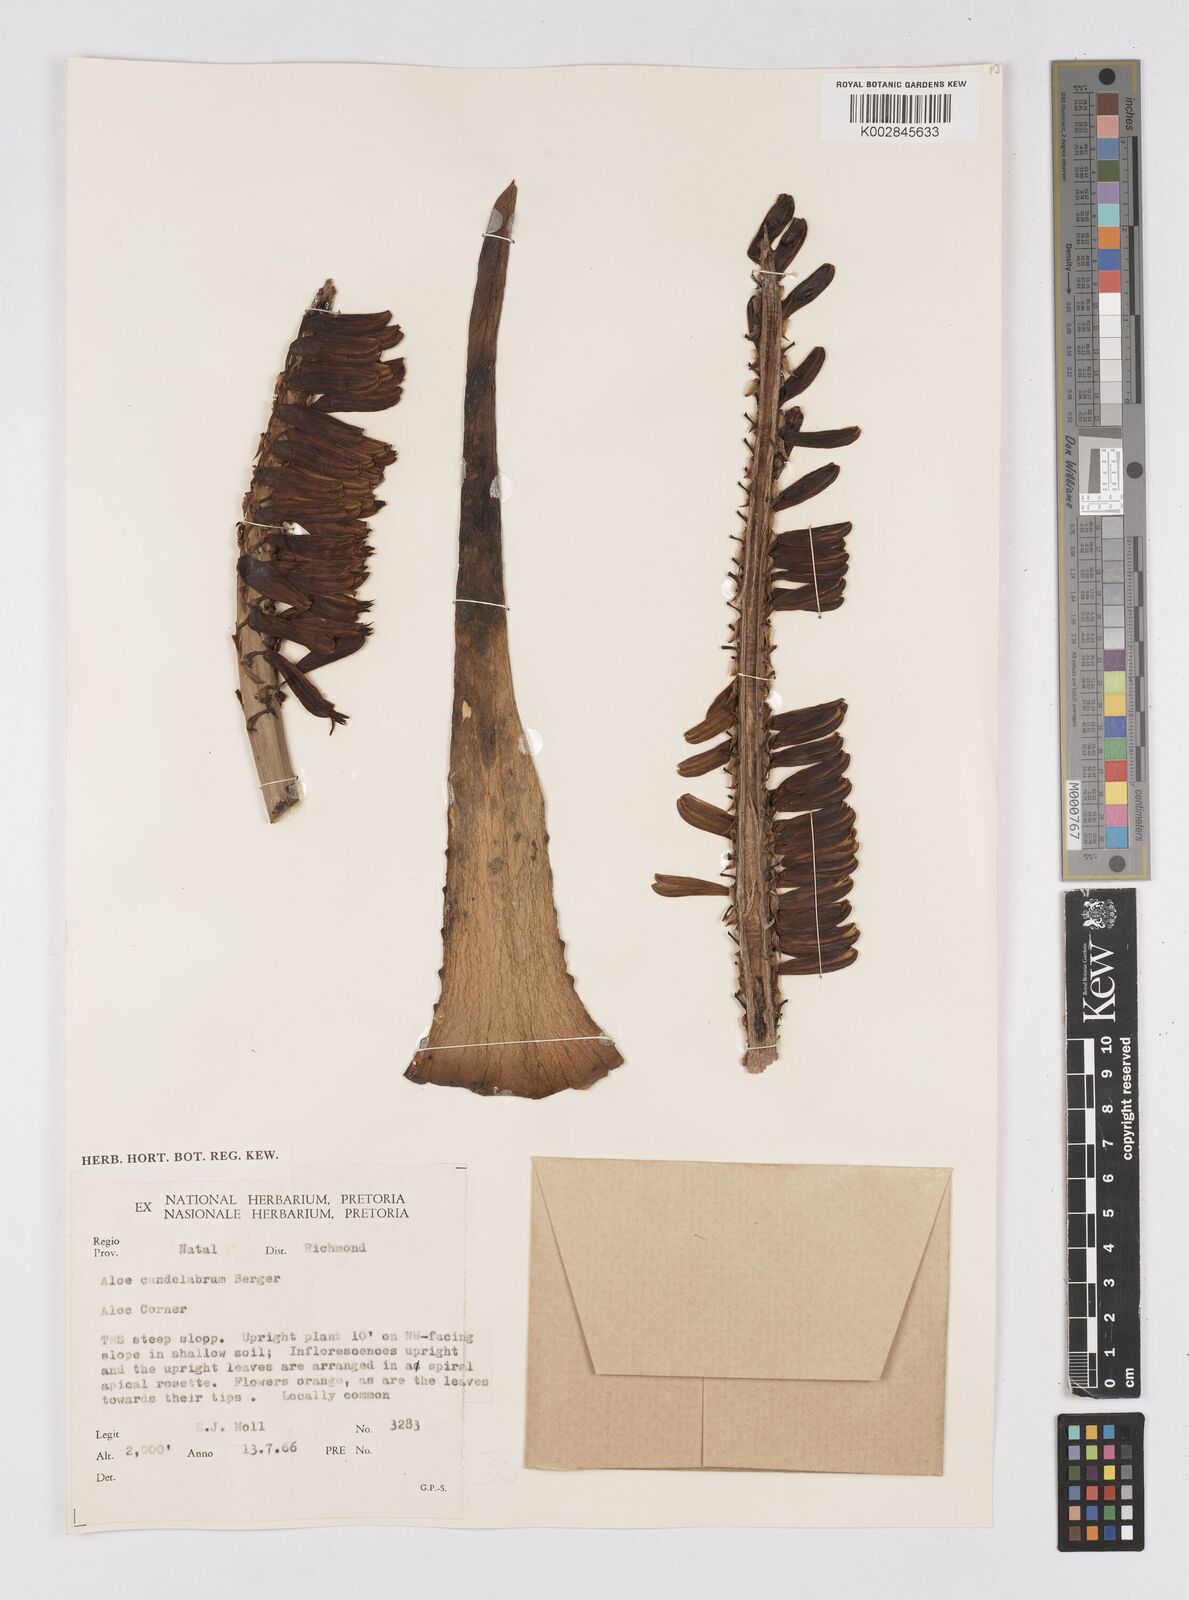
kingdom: Plantae
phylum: Tracheophyta
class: Liliopsida
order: Asparagales
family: Asphodelaceae
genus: Aloe
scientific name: Aloe candelabrum
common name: Candelabra aloe
